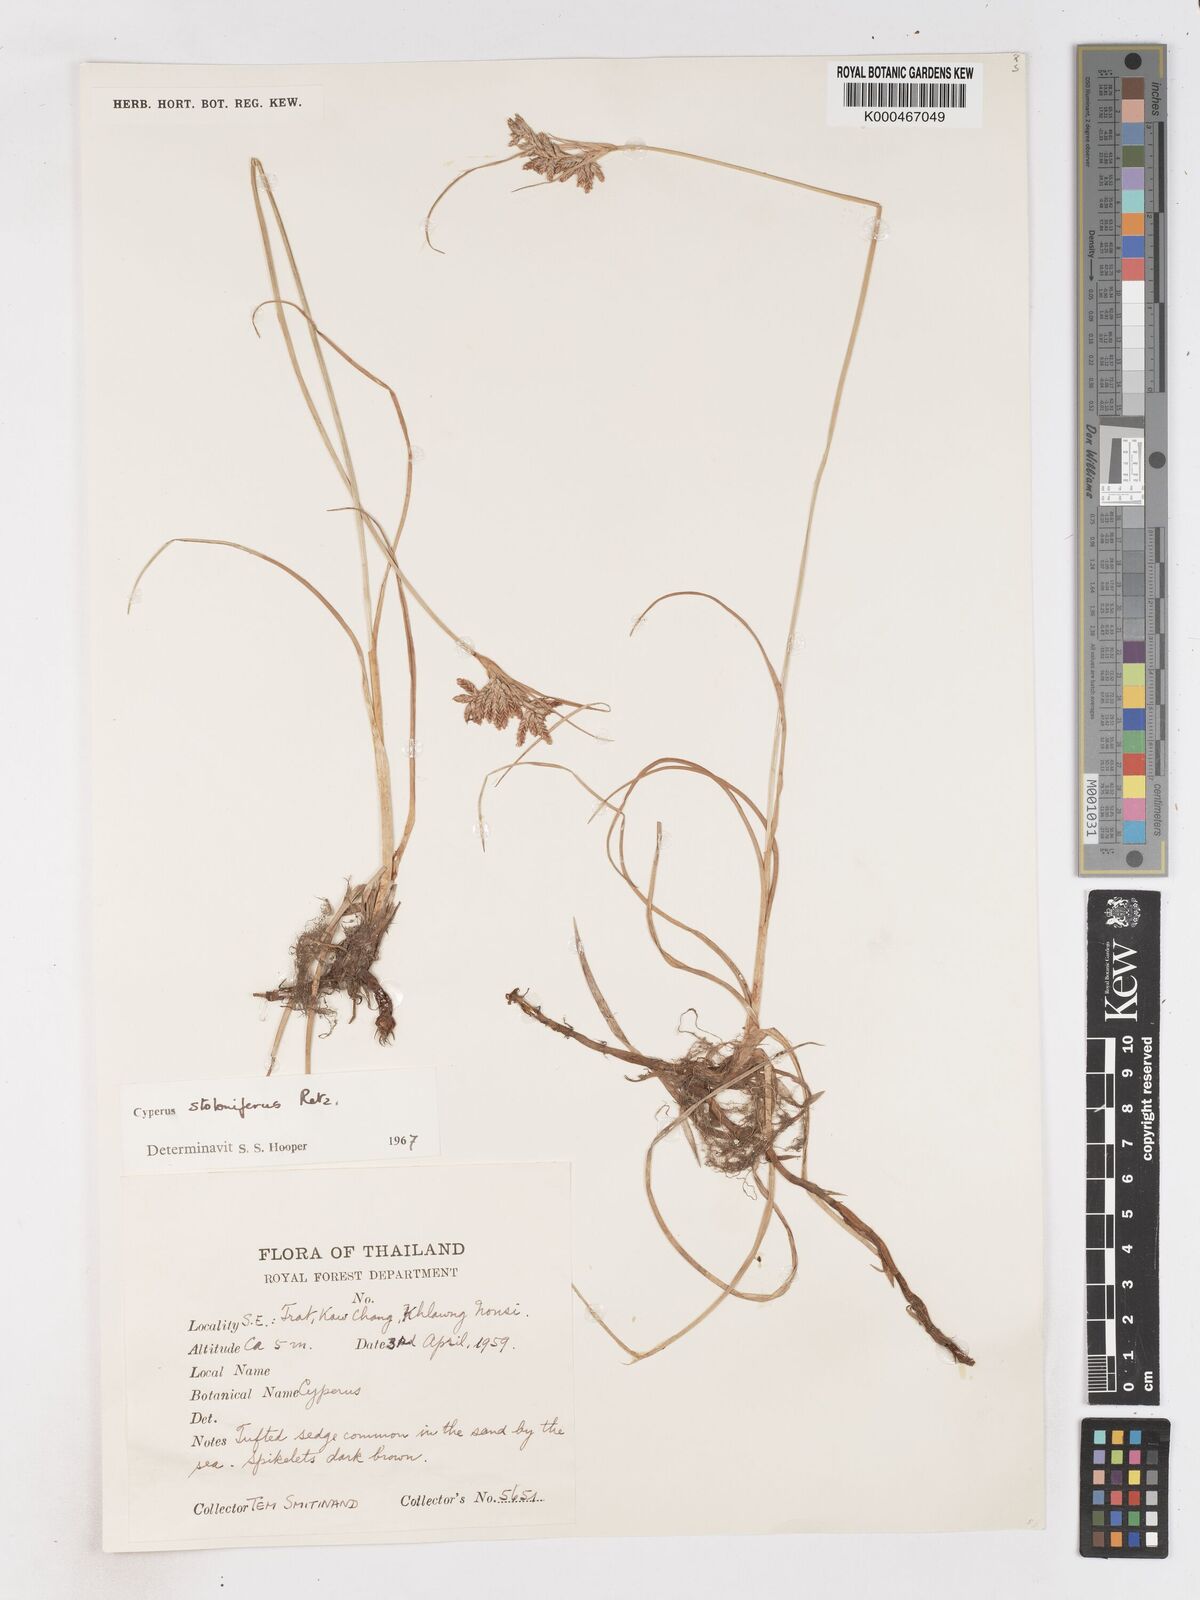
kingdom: Plantae
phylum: Tracheophyta
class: Liliopsida
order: Poales
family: Cyperaceae
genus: Cyperus
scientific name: Cyperus
